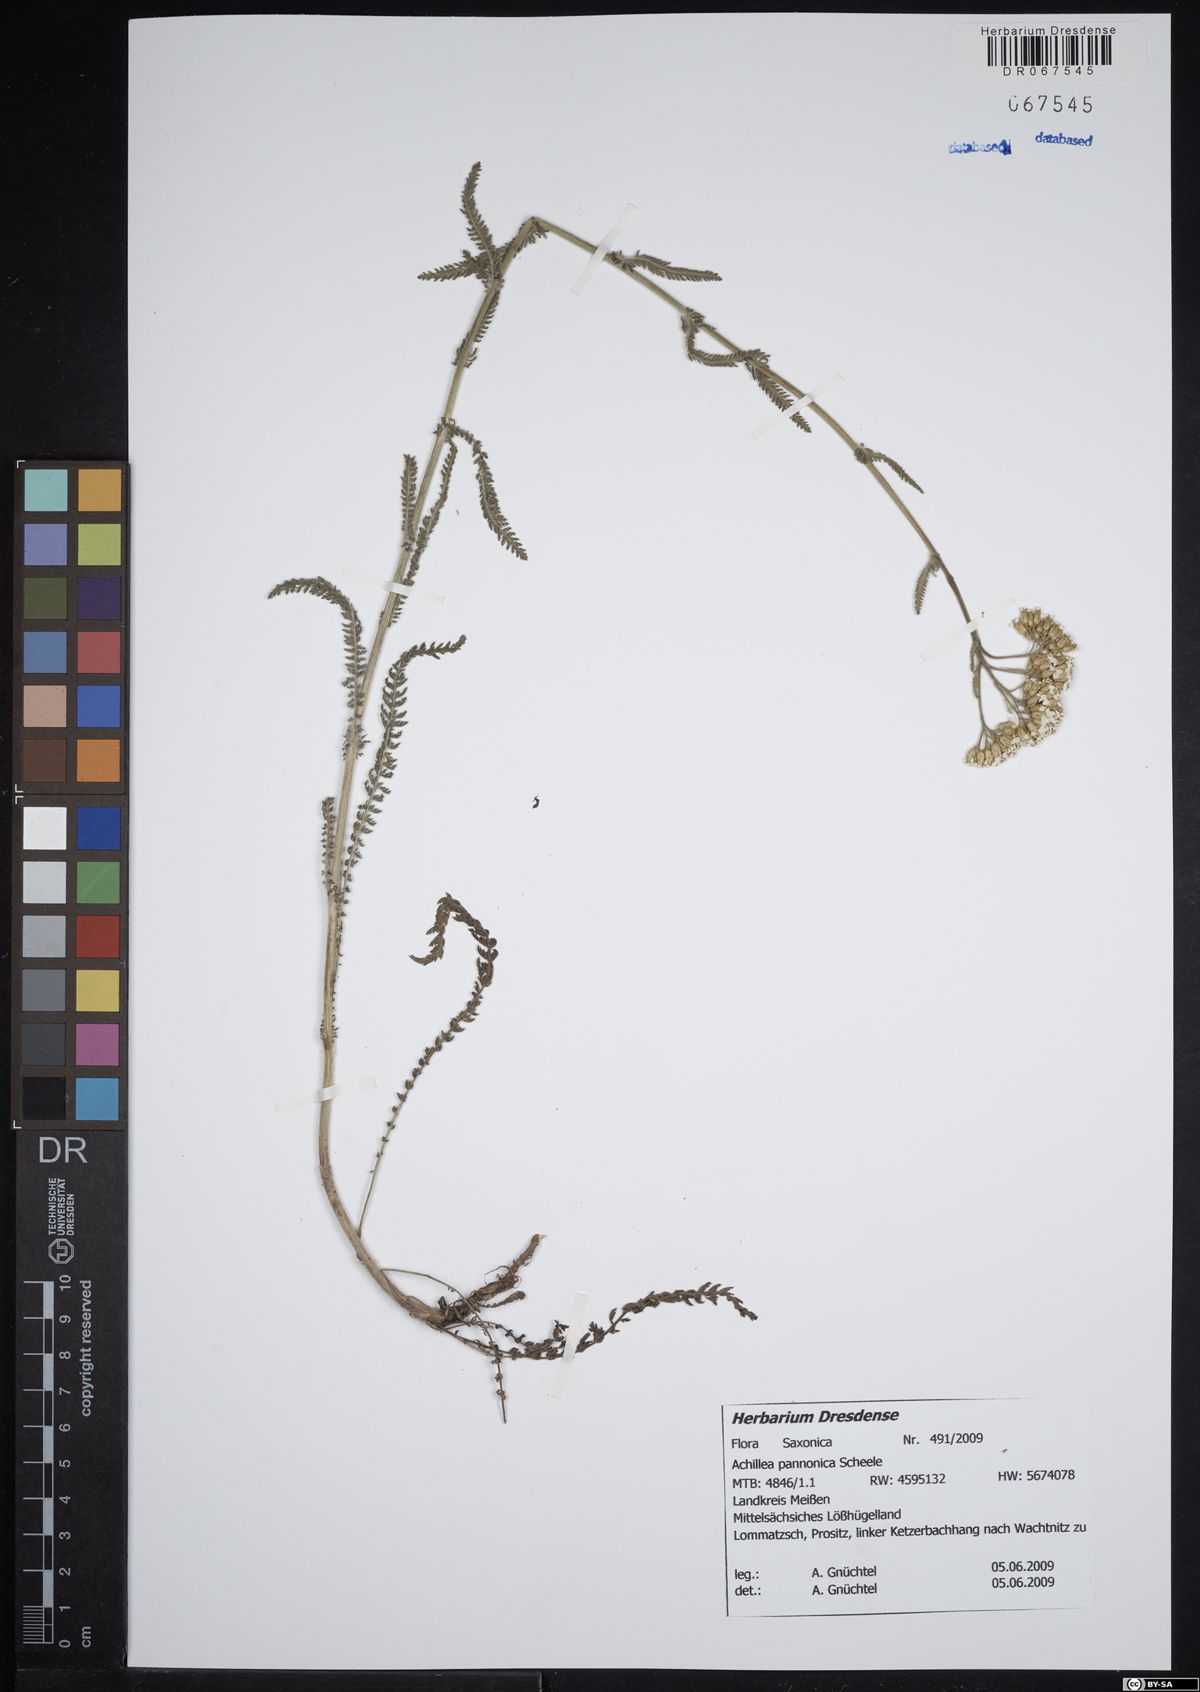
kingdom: Plantae
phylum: Tracheophyta
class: Magnoliopsida
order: Asterales
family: Asteraceae
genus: Achillea
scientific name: Achillea pannonica
